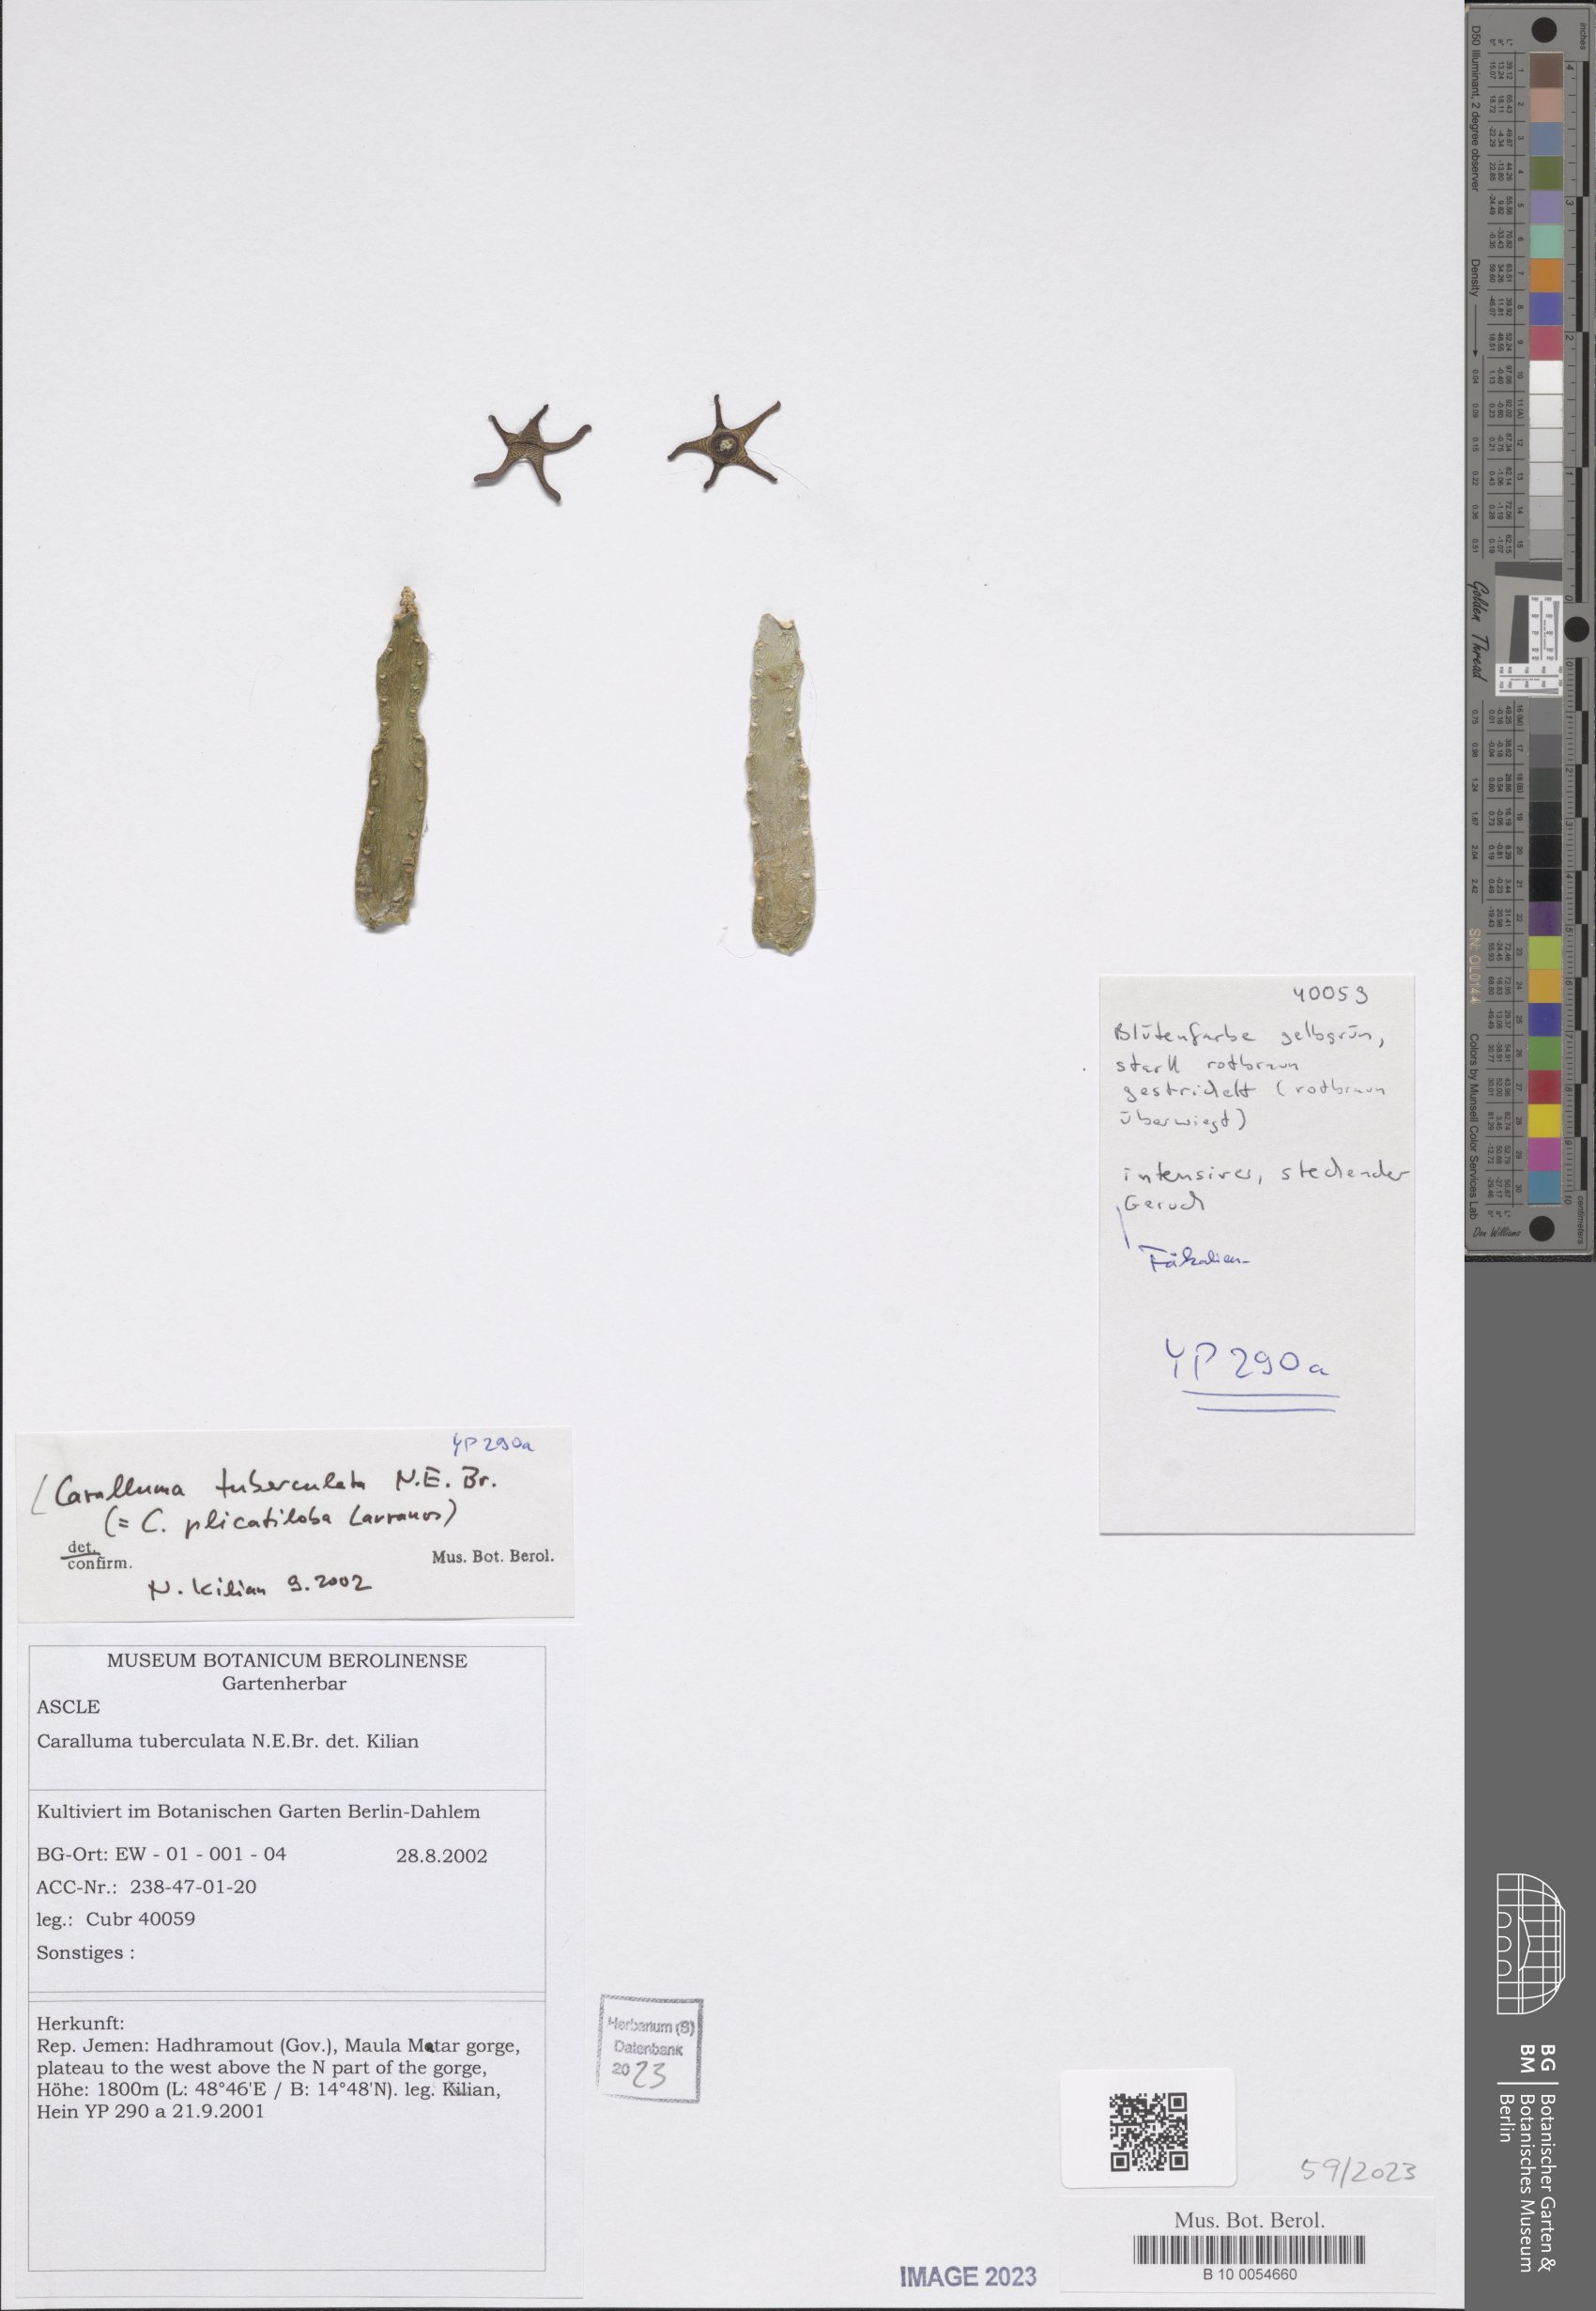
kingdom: Plantae
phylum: Tracheophyta
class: Magnoliopsida
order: Gentianales
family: Apocynaceae
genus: Ceropegia
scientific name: Ceropegia plicatiloba
